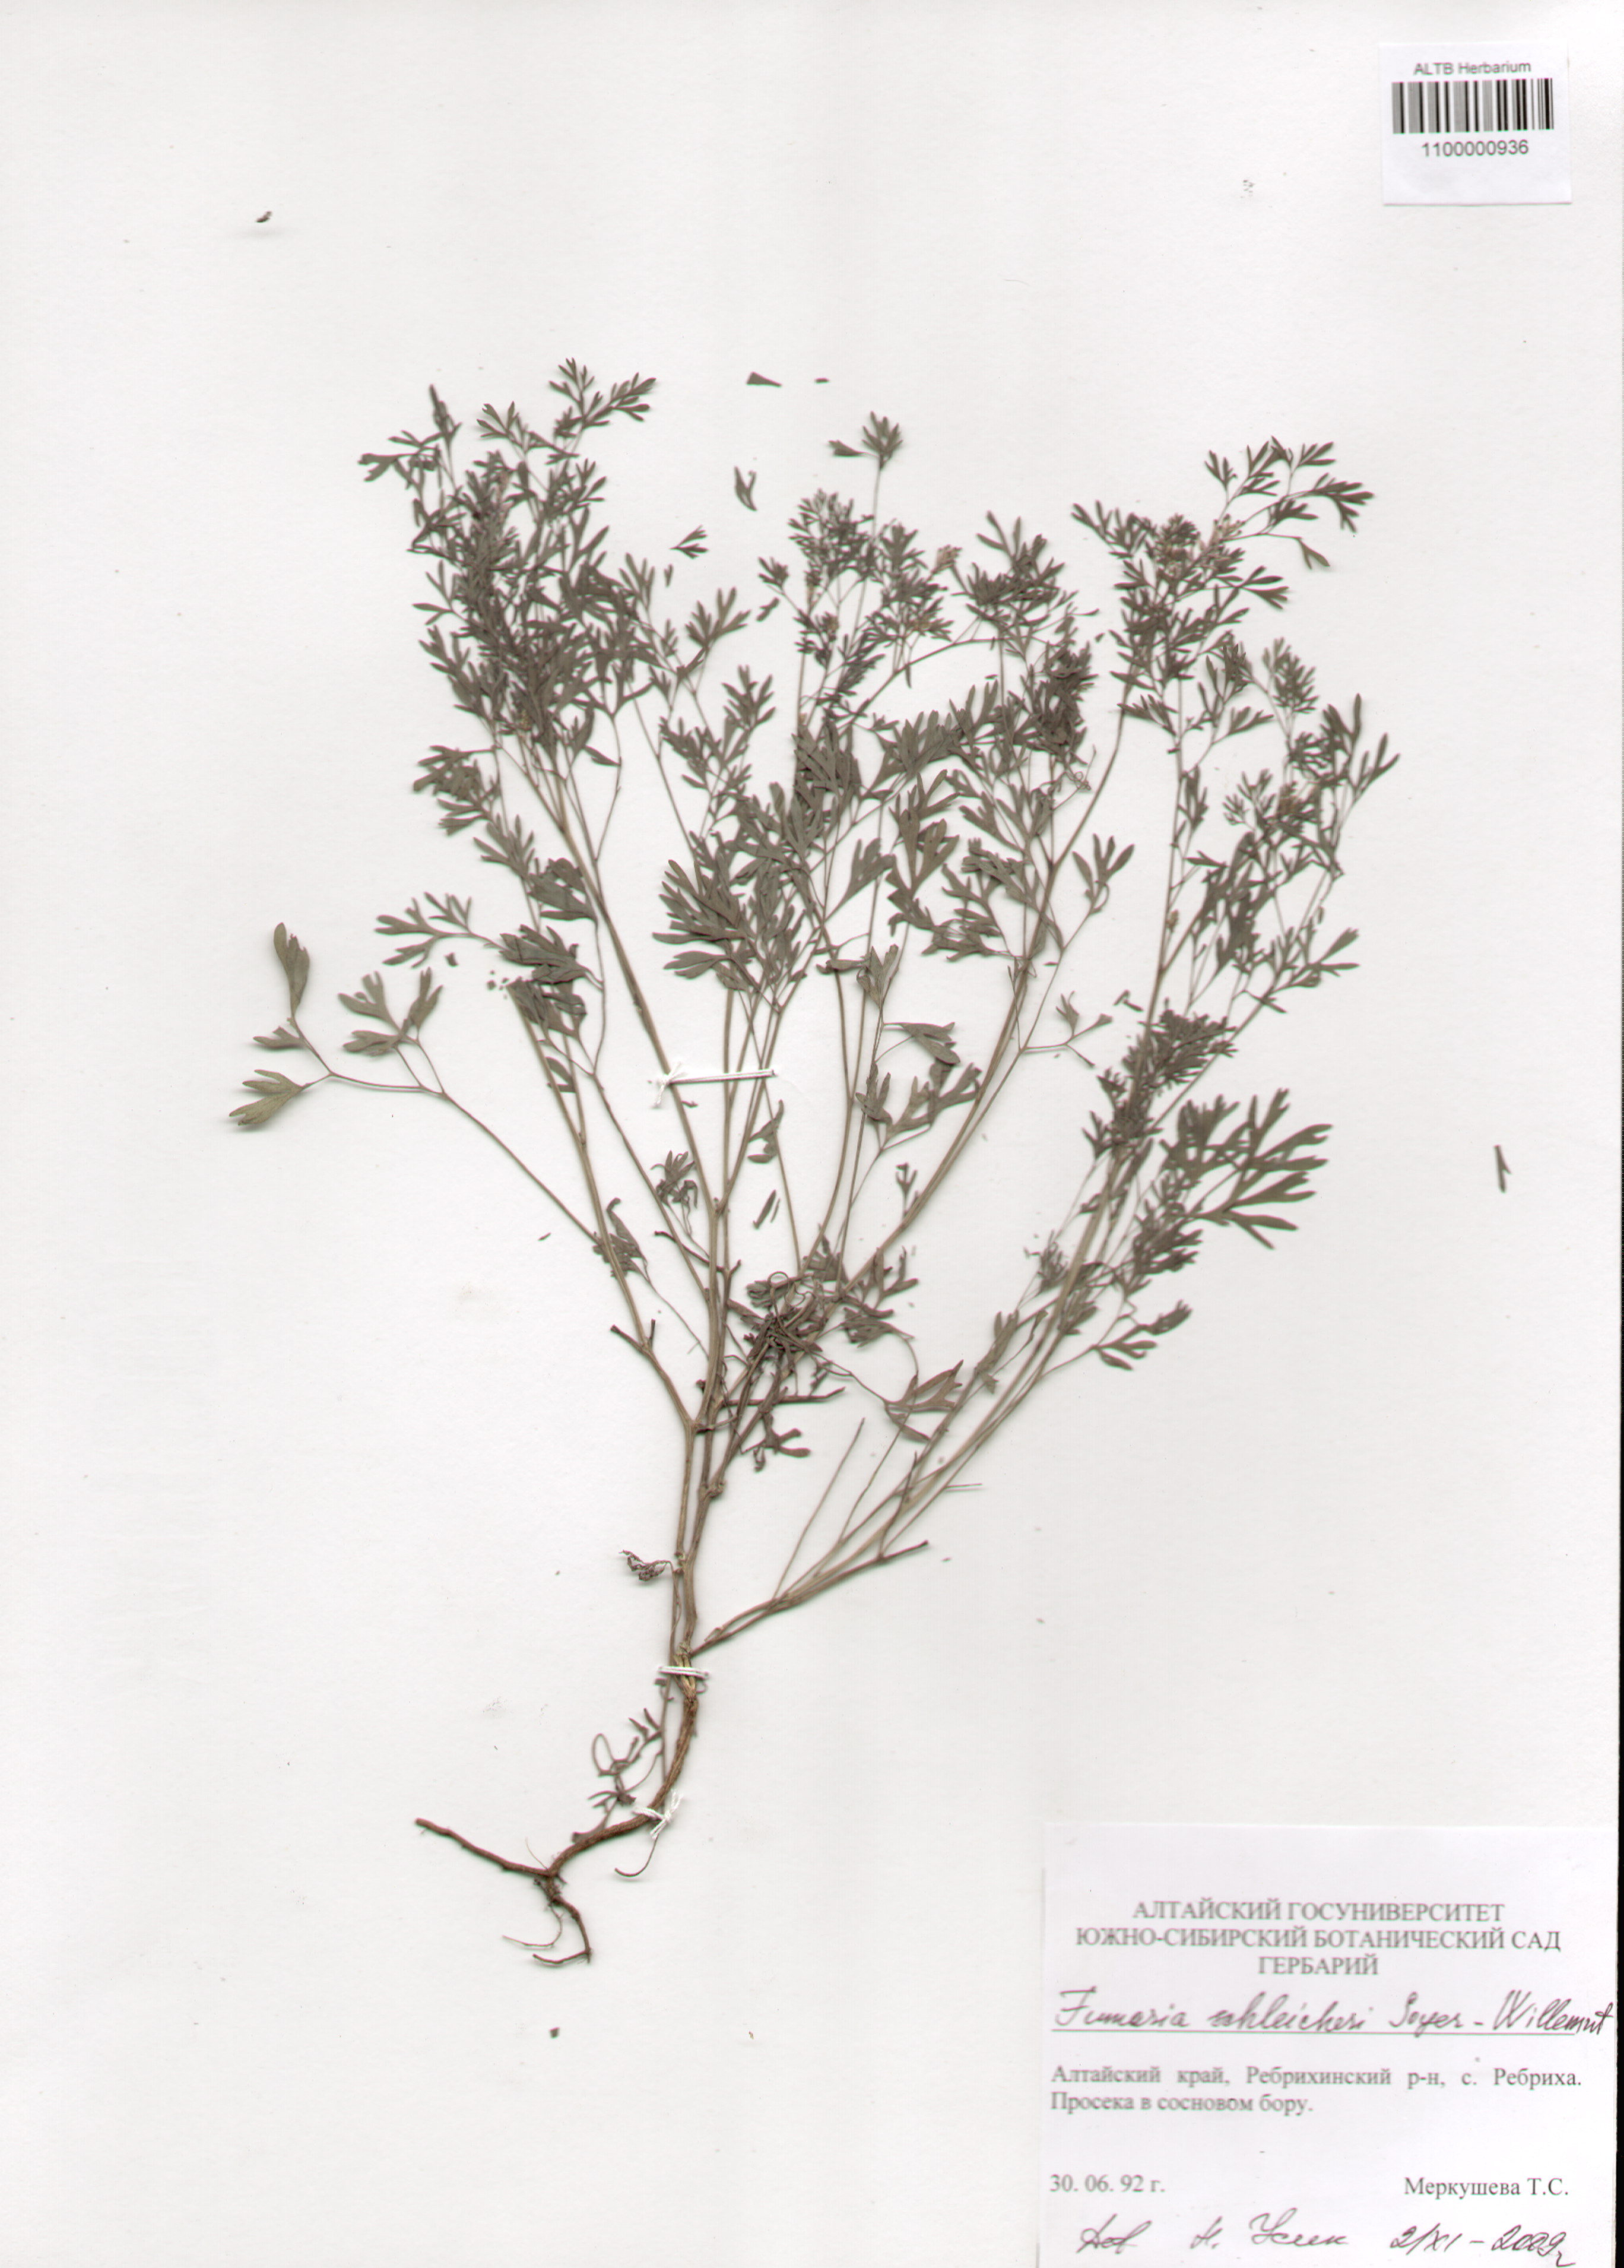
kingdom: Plantae
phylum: Tracheophyta
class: Magnoliopsida
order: Ranunculales
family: Papaveraceae
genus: Fumaria
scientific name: Fumaria schleicheri
